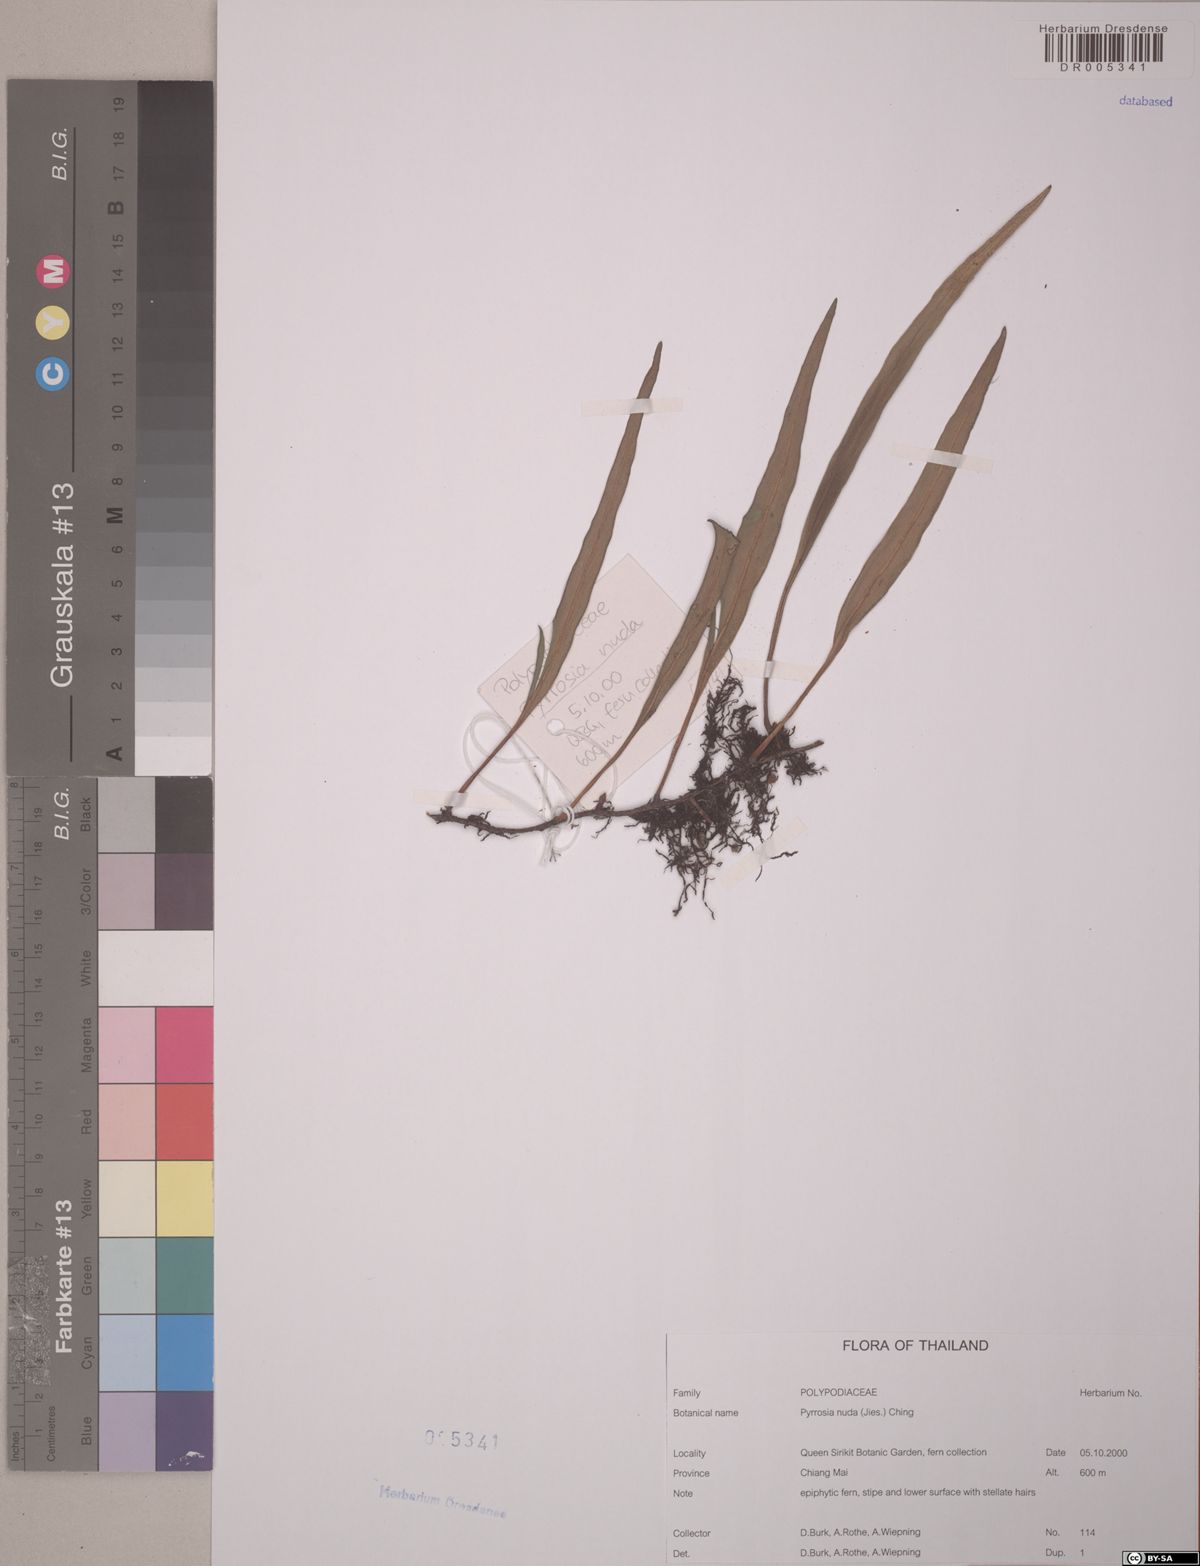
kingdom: Plantae
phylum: Tracheophyta
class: Polypodiopsida
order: Polypodiales
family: Polypodiaceae
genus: Pyrrosia
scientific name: Pyrrosia glabra
